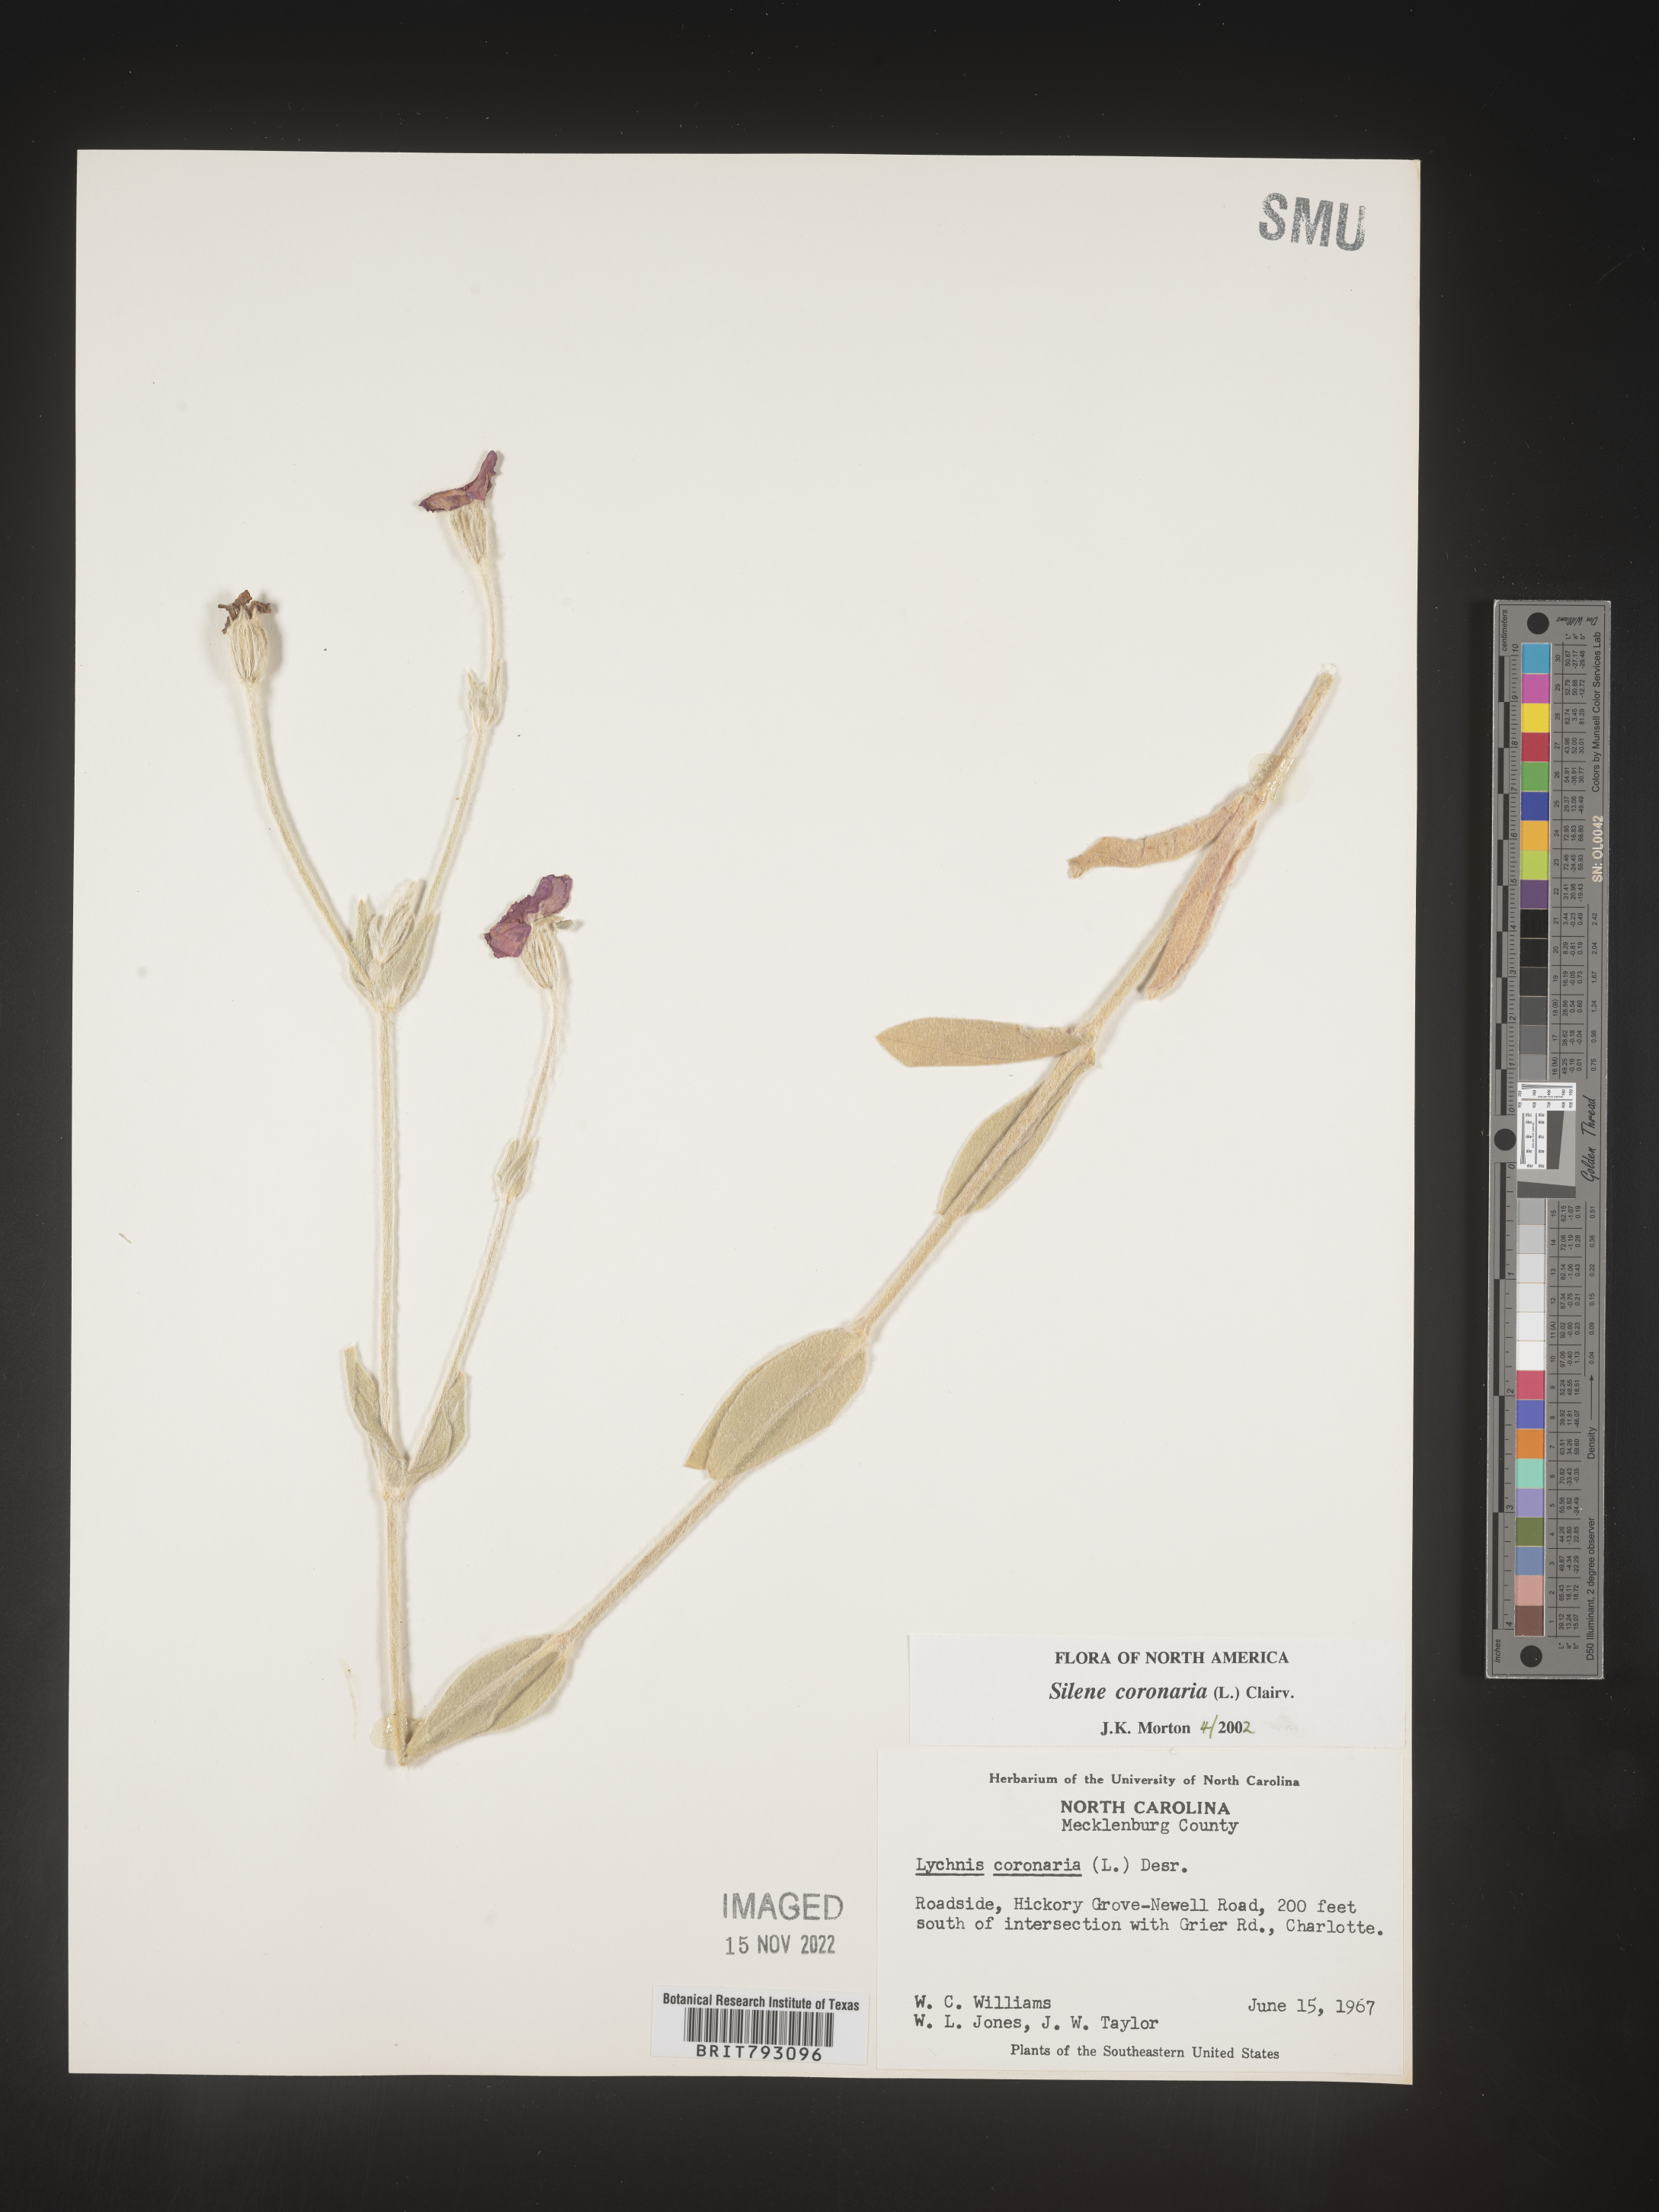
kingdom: Plantae
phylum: Tracheophyta
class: Magnoliopsida
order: Caryophyllales
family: Caryophyllaceae
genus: Silene
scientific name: Silene coronaria
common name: Rose campion
